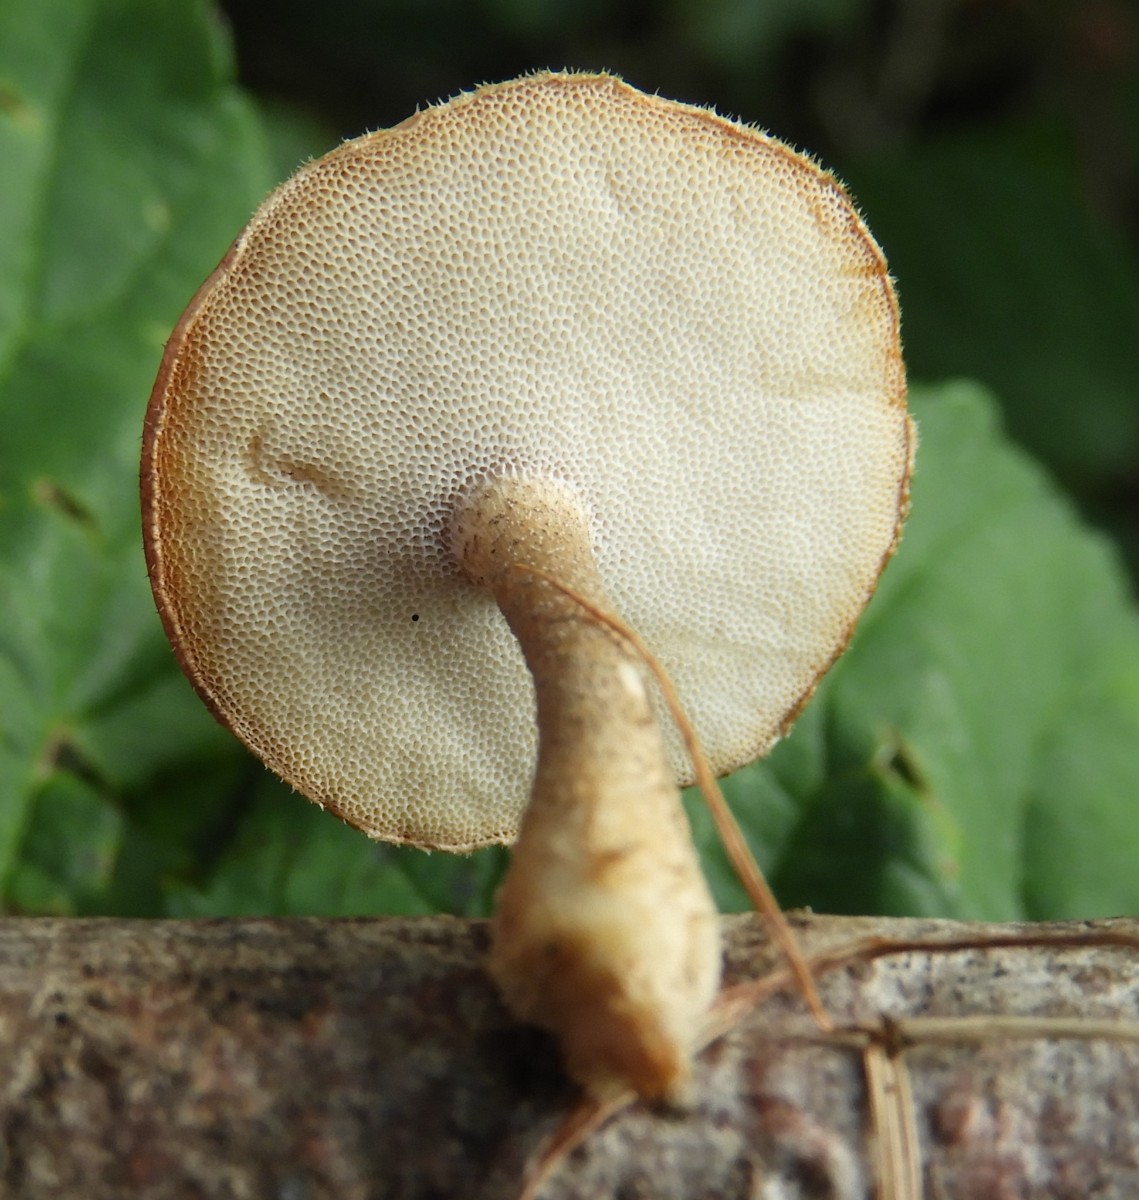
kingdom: Fungi
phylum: Basidiomycota
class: Agaricomycetes
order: Polyporales
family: Polyporaceae
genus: Lentinus
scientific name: Lentinus brumalis
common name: vinter-stilkporesvamp
